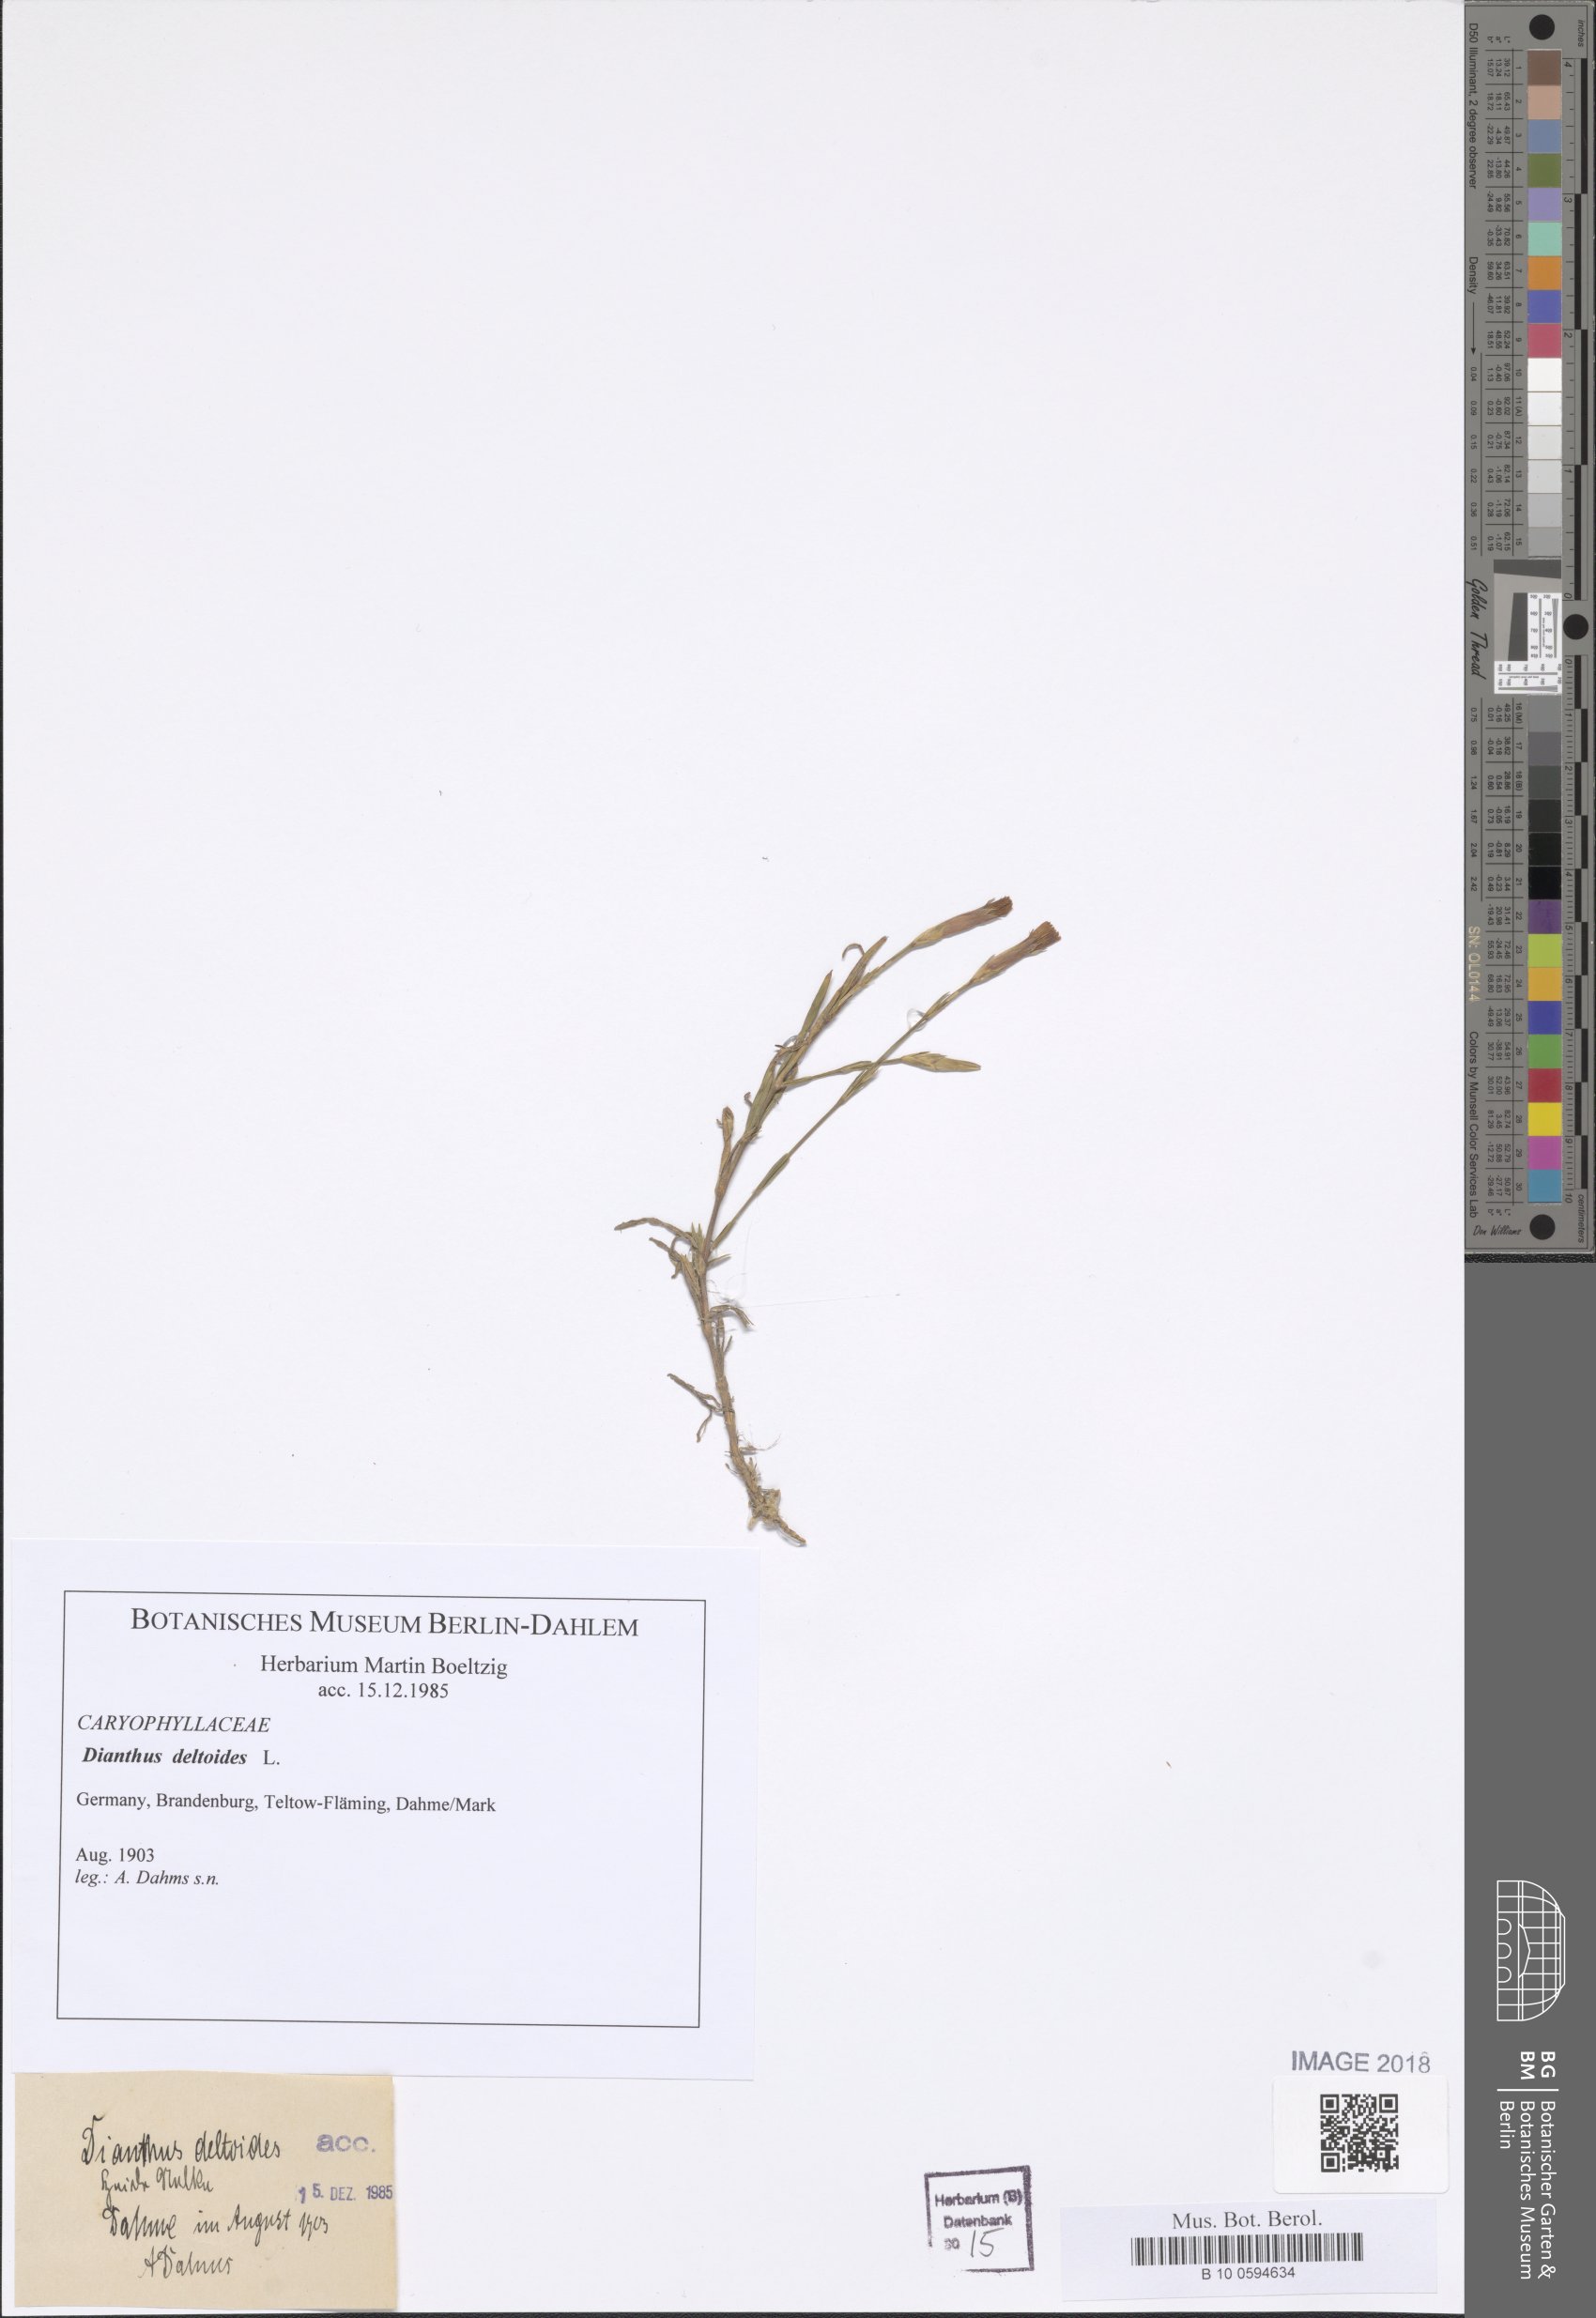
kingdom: Plantae
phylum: Tracheophyta
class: Magnoliopsida
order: Caryophyllales
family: Caryophyllaceae
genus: Dianthus
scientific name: Dianthus deltoides
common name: Maiden pink
